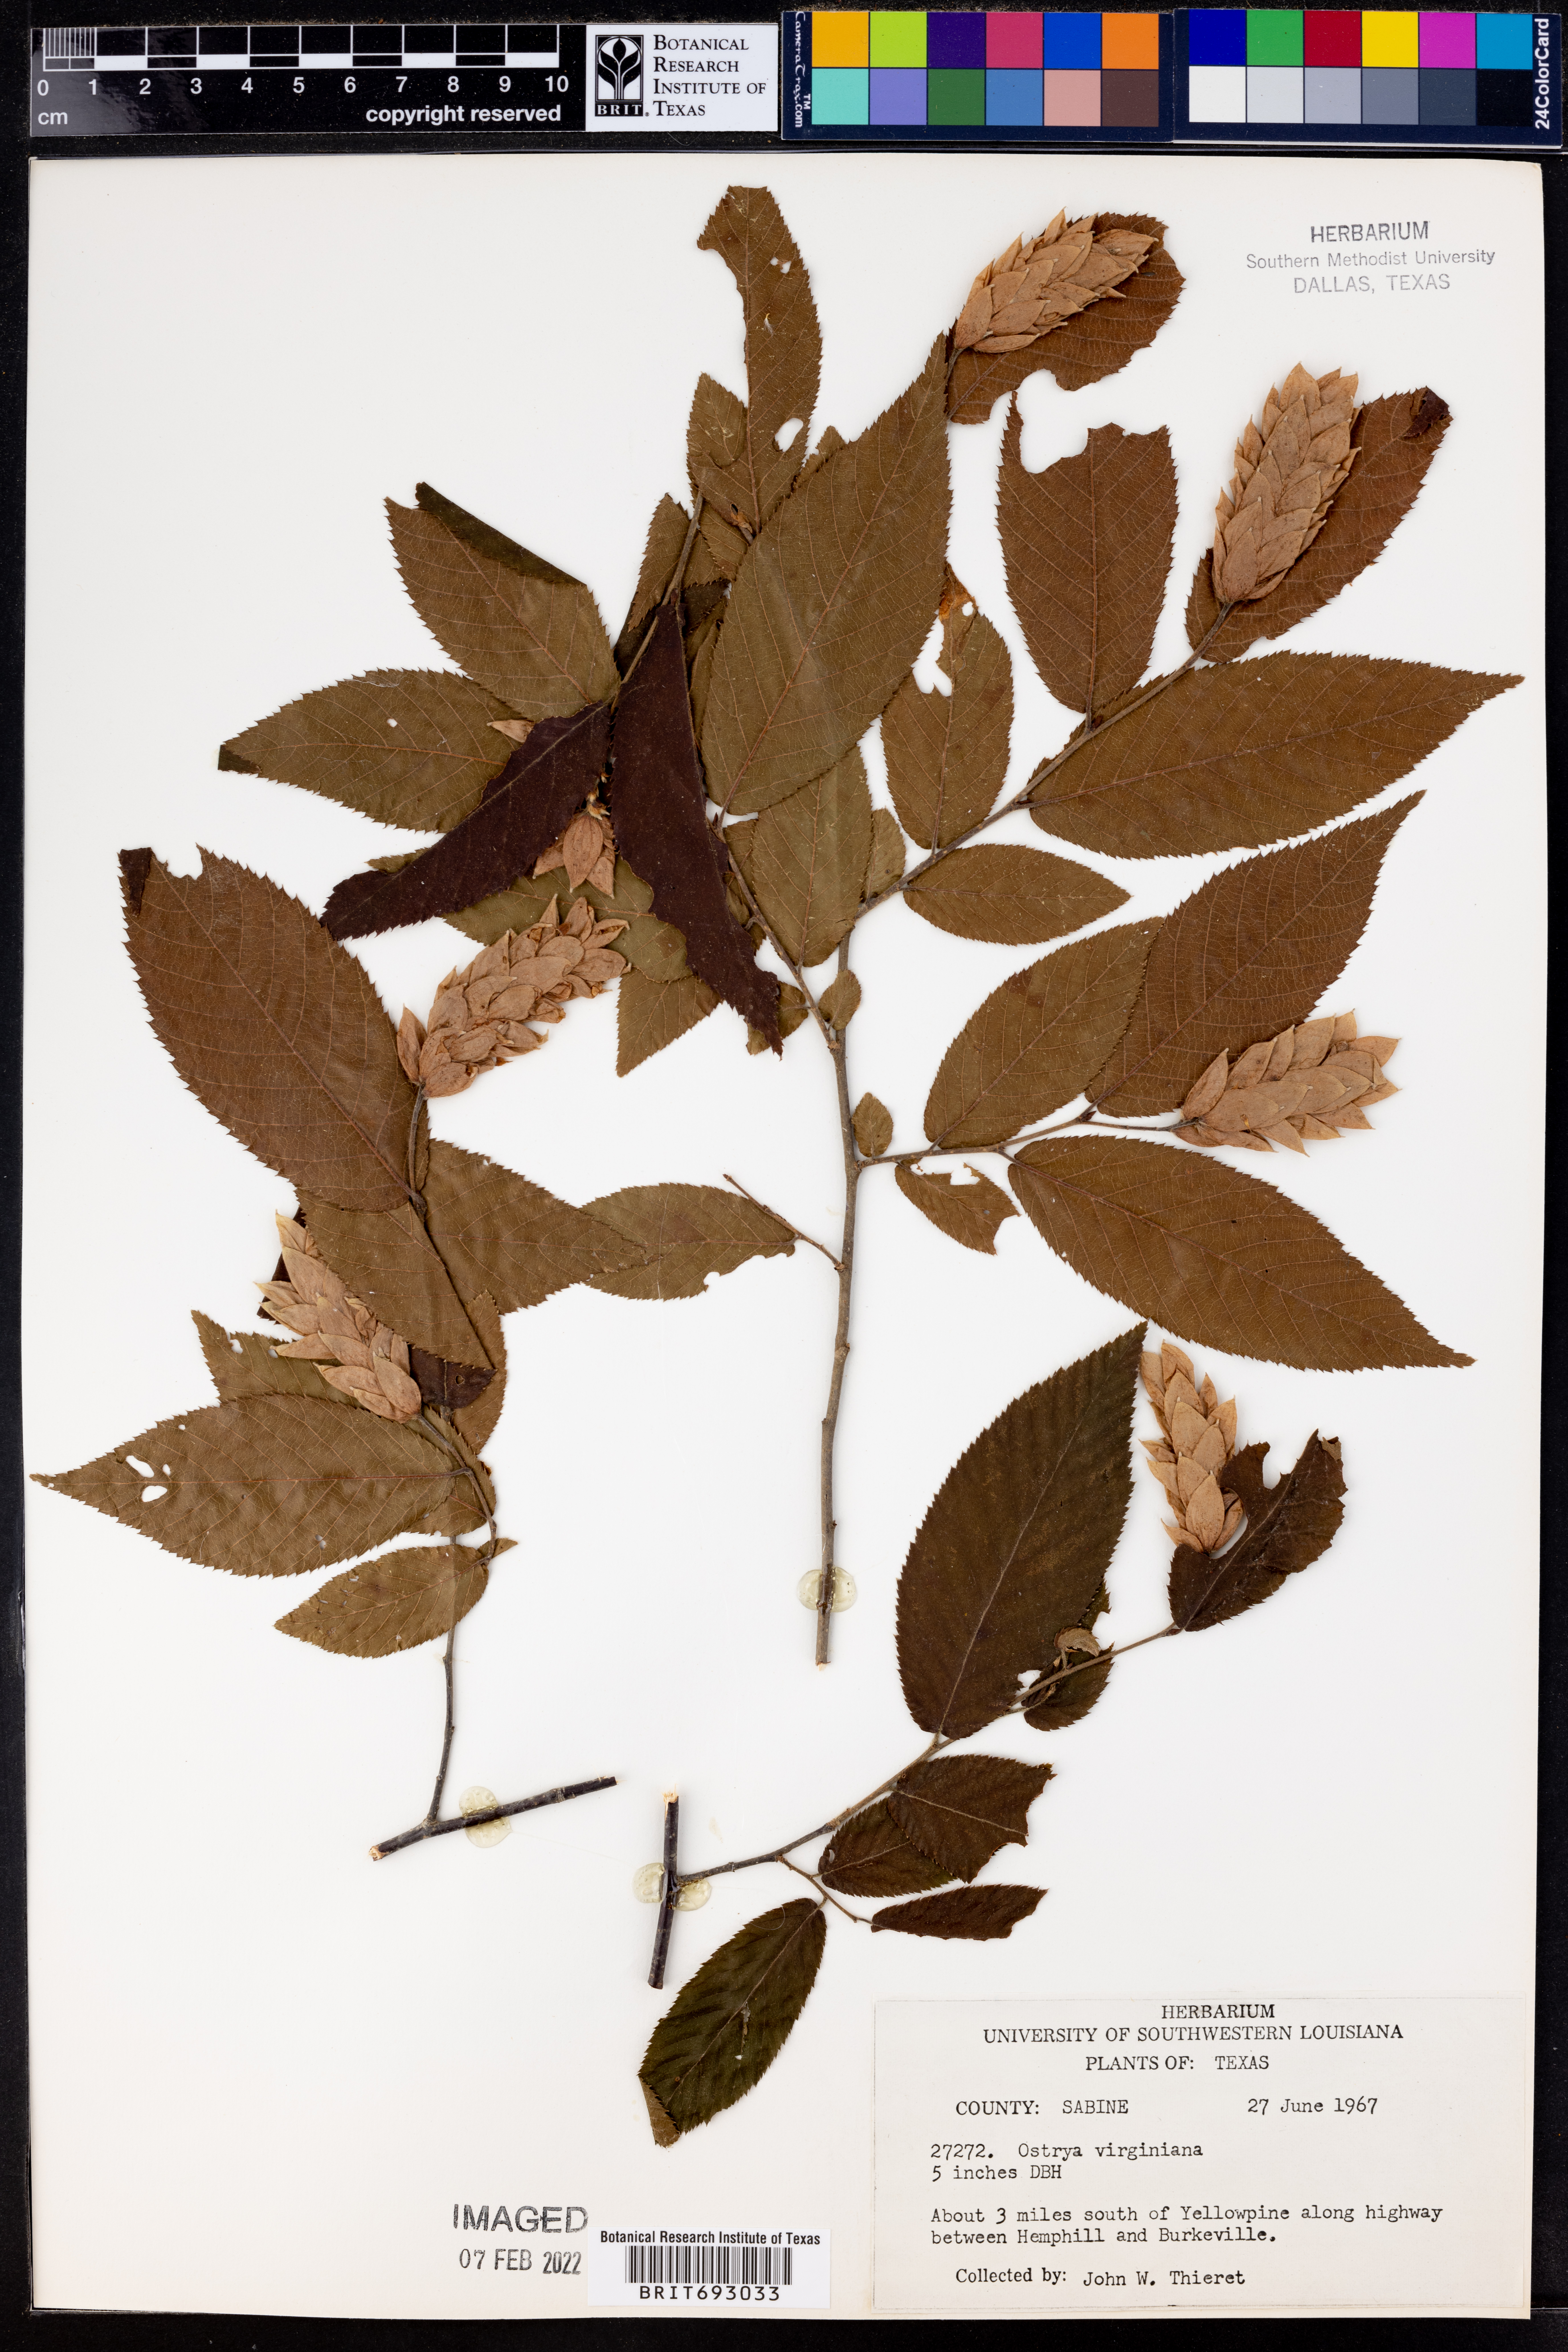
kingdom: Plantae
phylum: Tracheophyta
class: Magnoliopsida
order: Fagales
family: Betulaceae
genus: Ostrya
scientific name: Ostrya virginiana
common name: Ironwood
